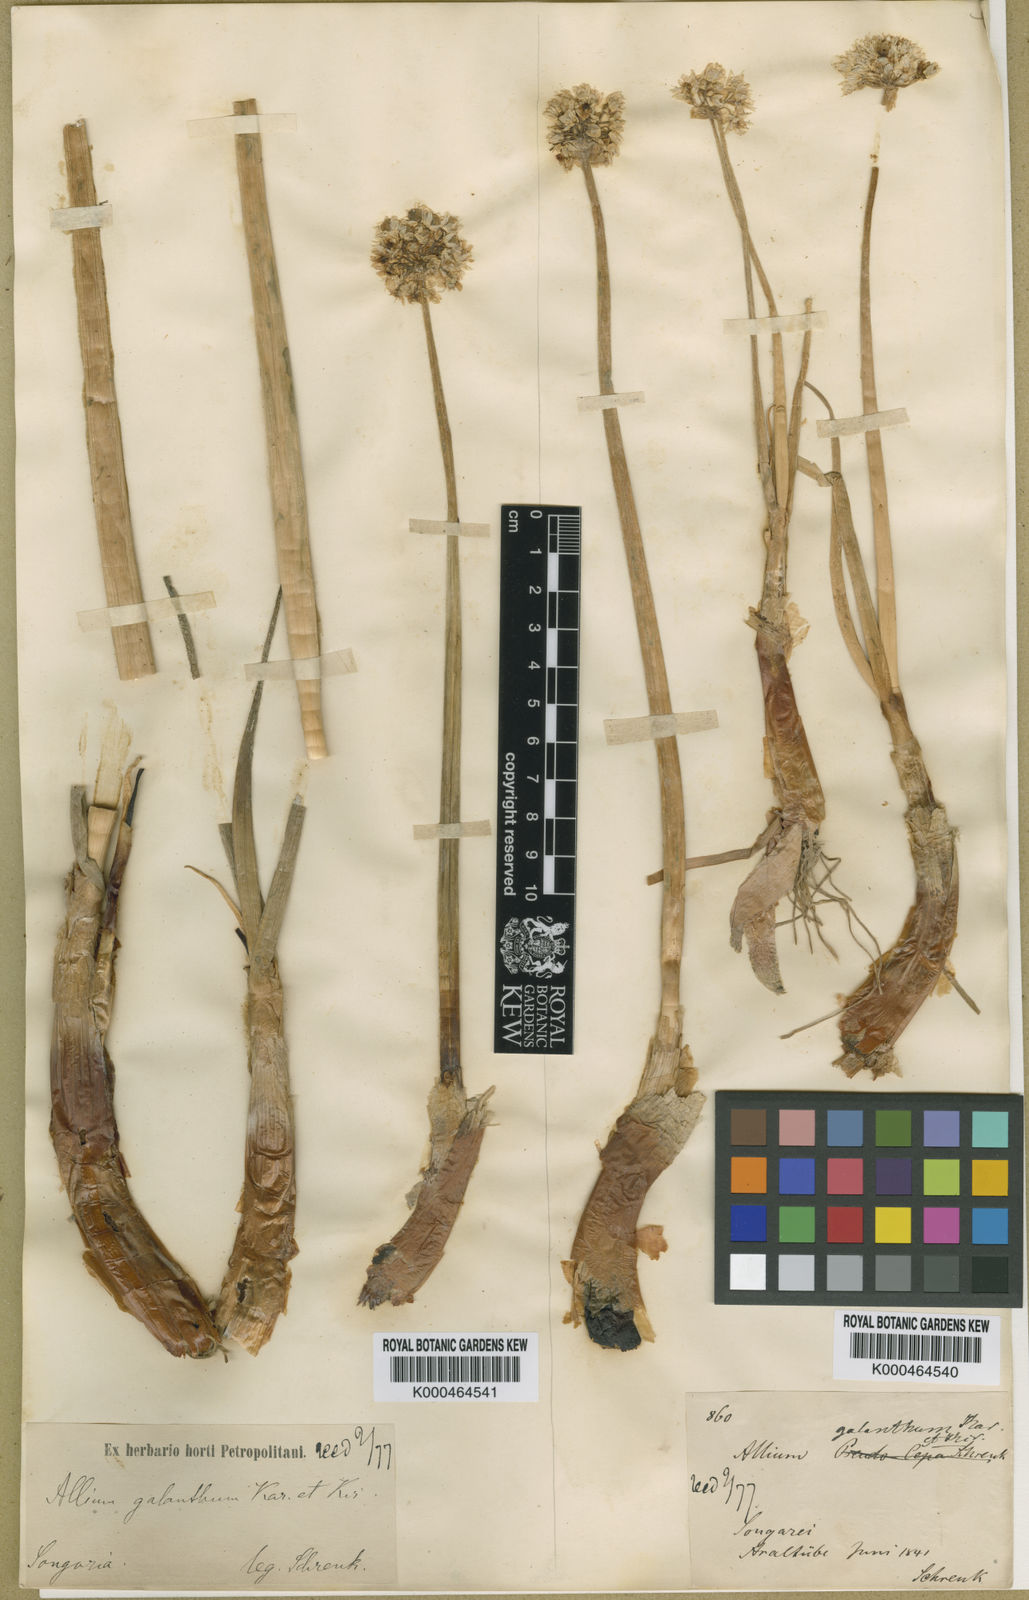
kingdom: Plantae
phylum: Tracheophyta
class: Liliopsida
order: Asparagales
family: Amaryllidaceae
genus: Allium
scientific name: Allium galanthum
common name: Snowdrop onion
